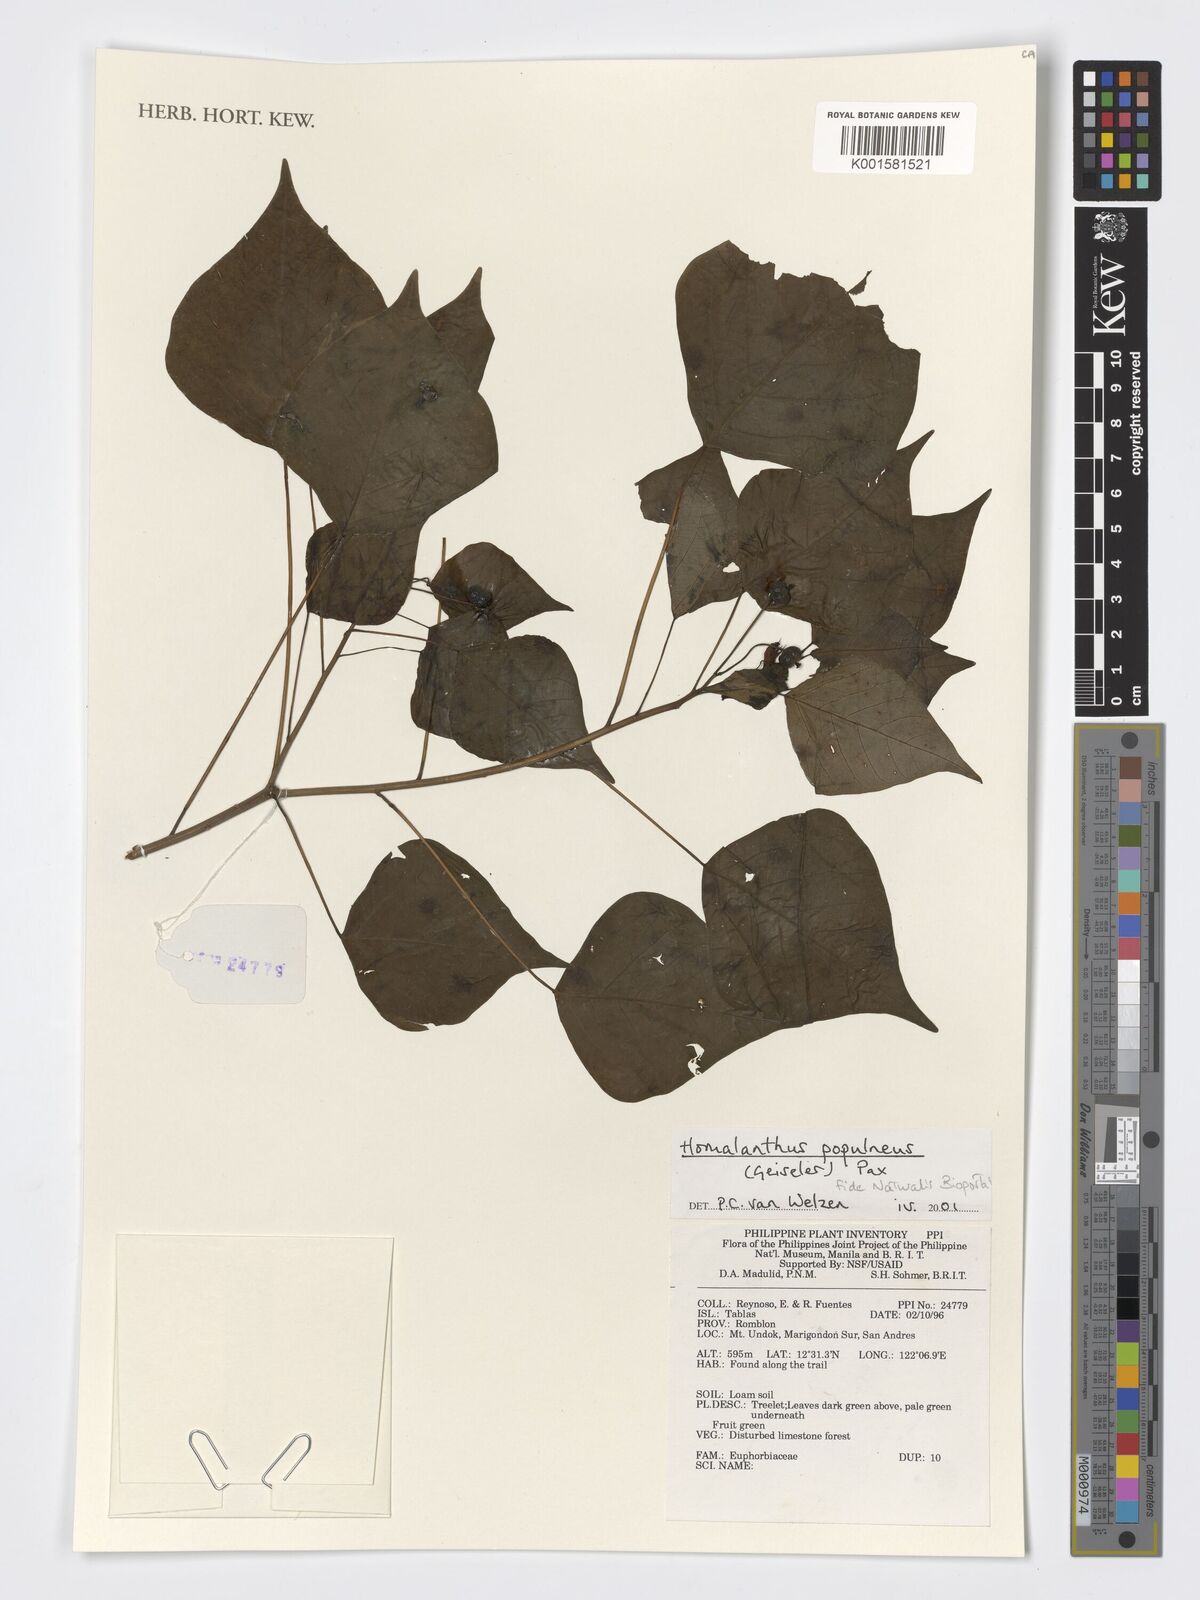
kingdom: Plantae
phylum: Tracheophyta
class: Magnoliopsida
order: Malpighiales
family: Euphorbiaceae
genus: Homalanthus
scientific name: Homalanthus populneus
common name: Spurge
